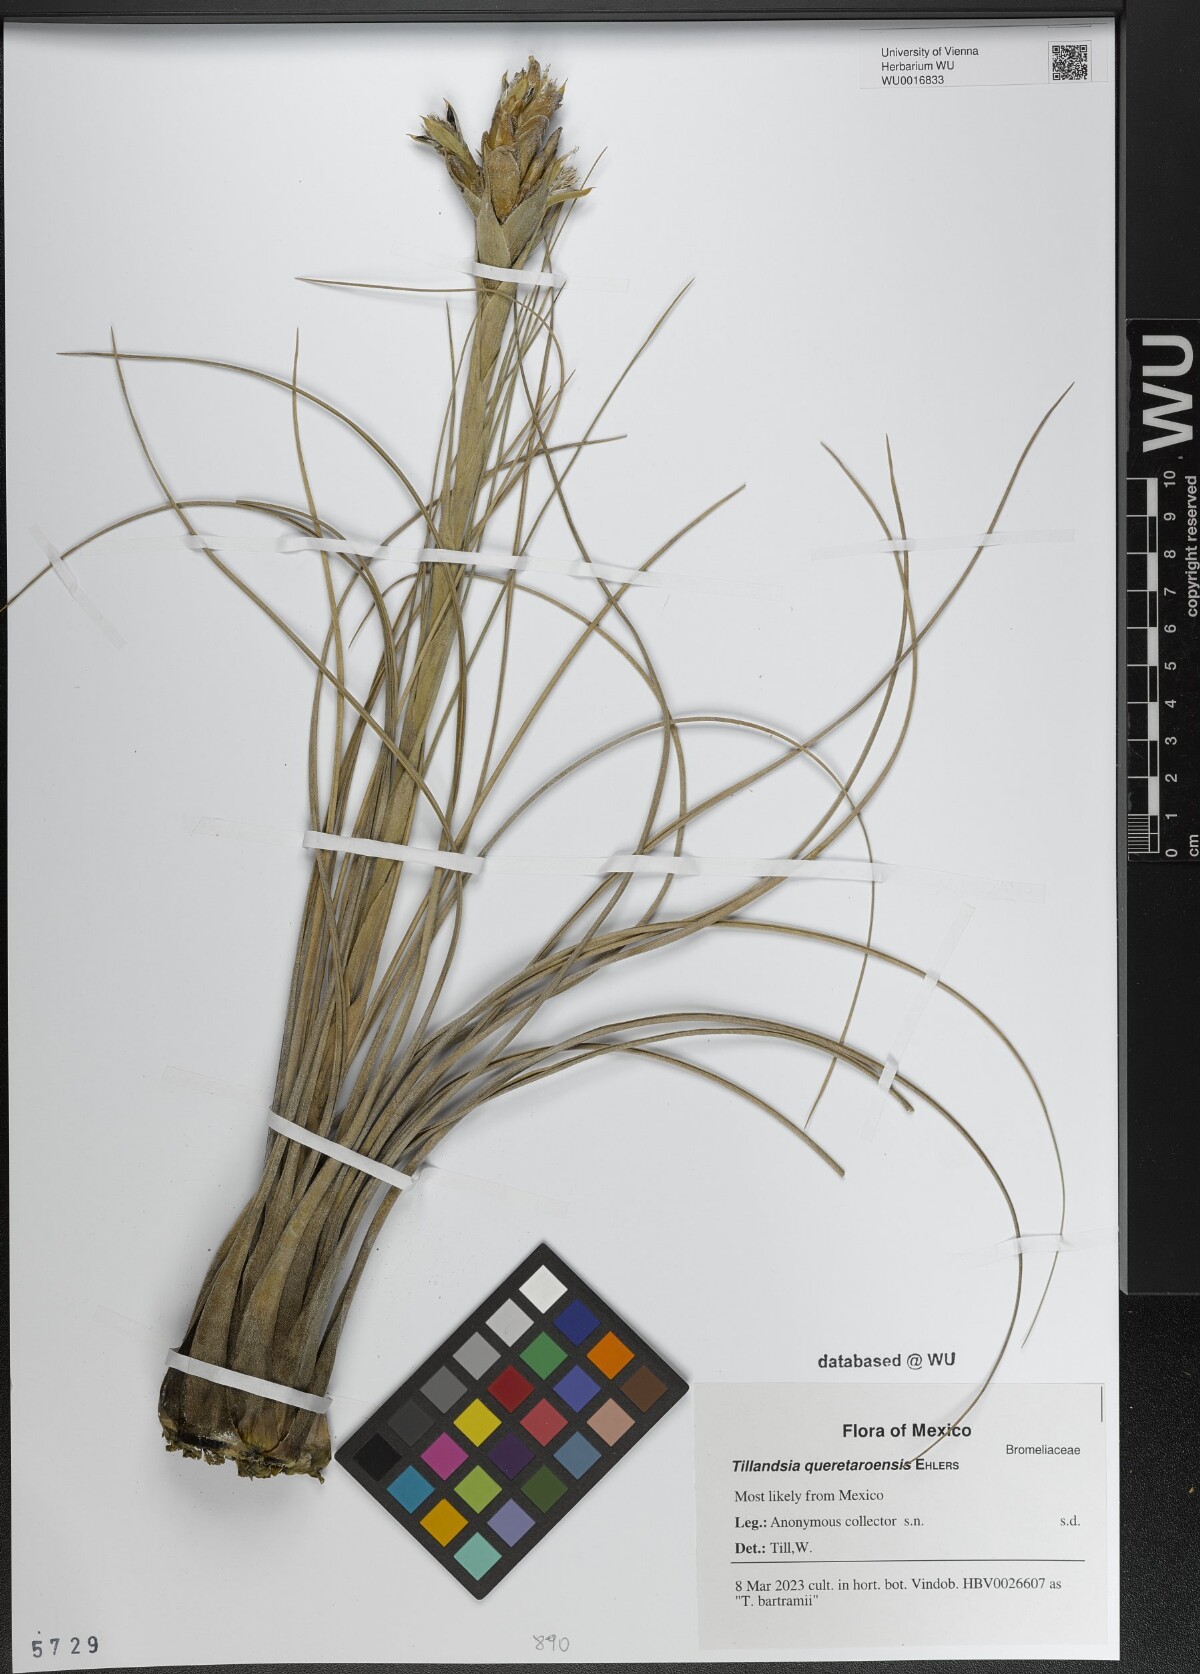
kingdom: Plantae
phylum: Tracheophyta
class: Liliopsida
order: Poales
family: Bromeliaceae
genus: Tillandsia
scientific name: Tillandsia queretaroensis
